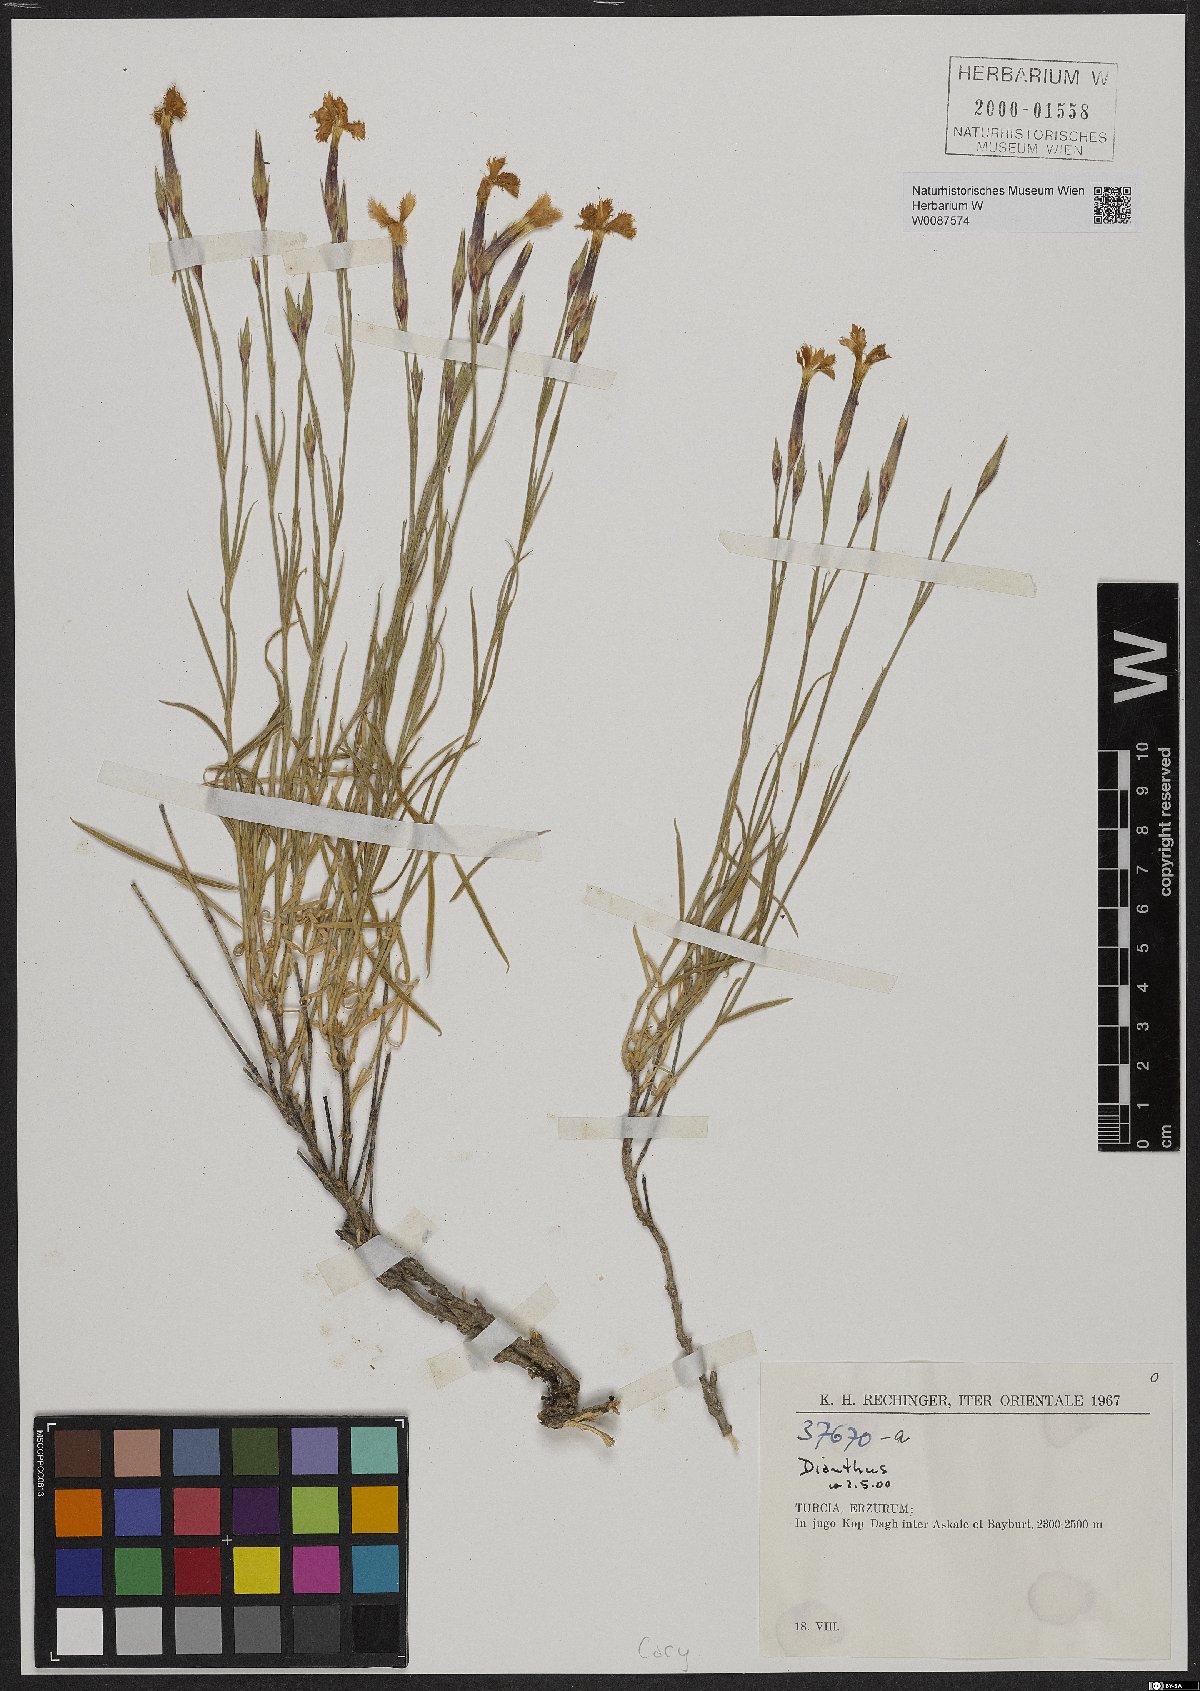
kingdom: Plantae
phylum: Tracheophyta
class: Magnoliopsida
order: Caryophyllales
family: Caryophyllaceae
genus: Dianthus
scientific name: Dianthus
